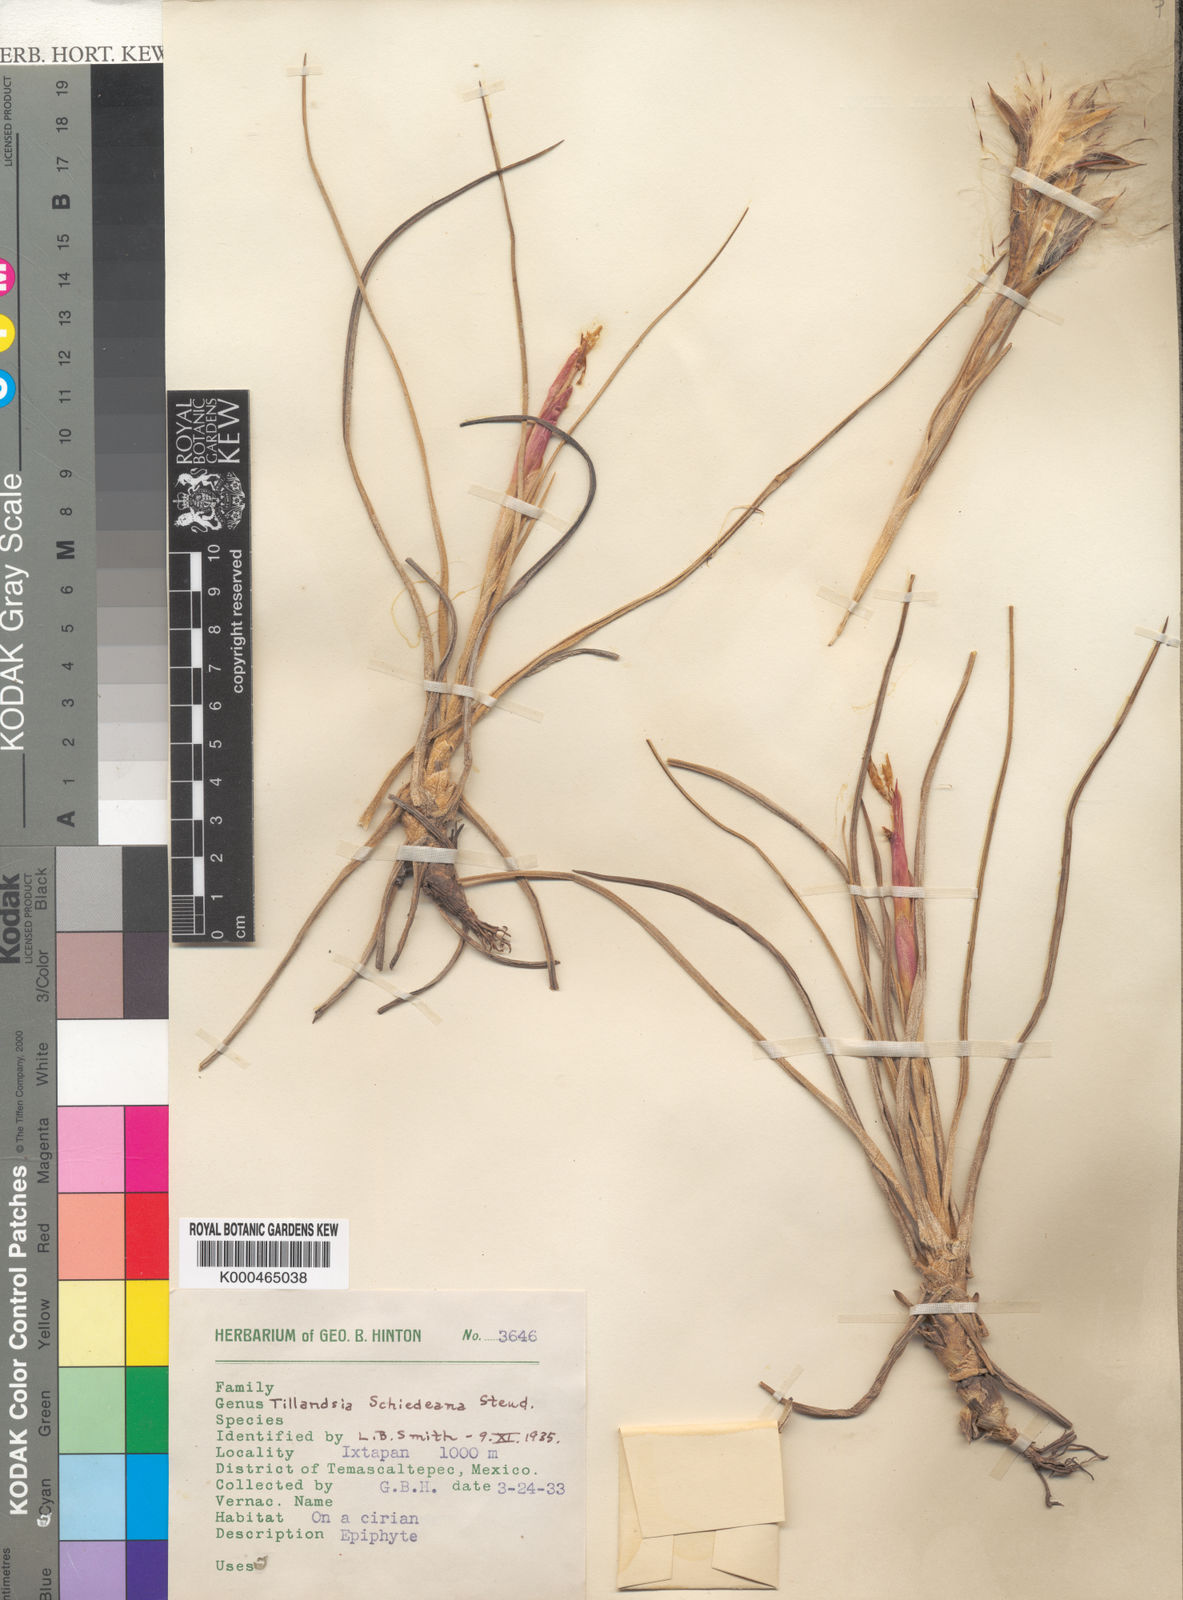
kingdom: Plantae
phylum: Tracheophyta
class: Liliopsida
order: Poales
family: Bromeliaceae
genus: Tillandsia
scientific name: Tillandsia schiedeana
